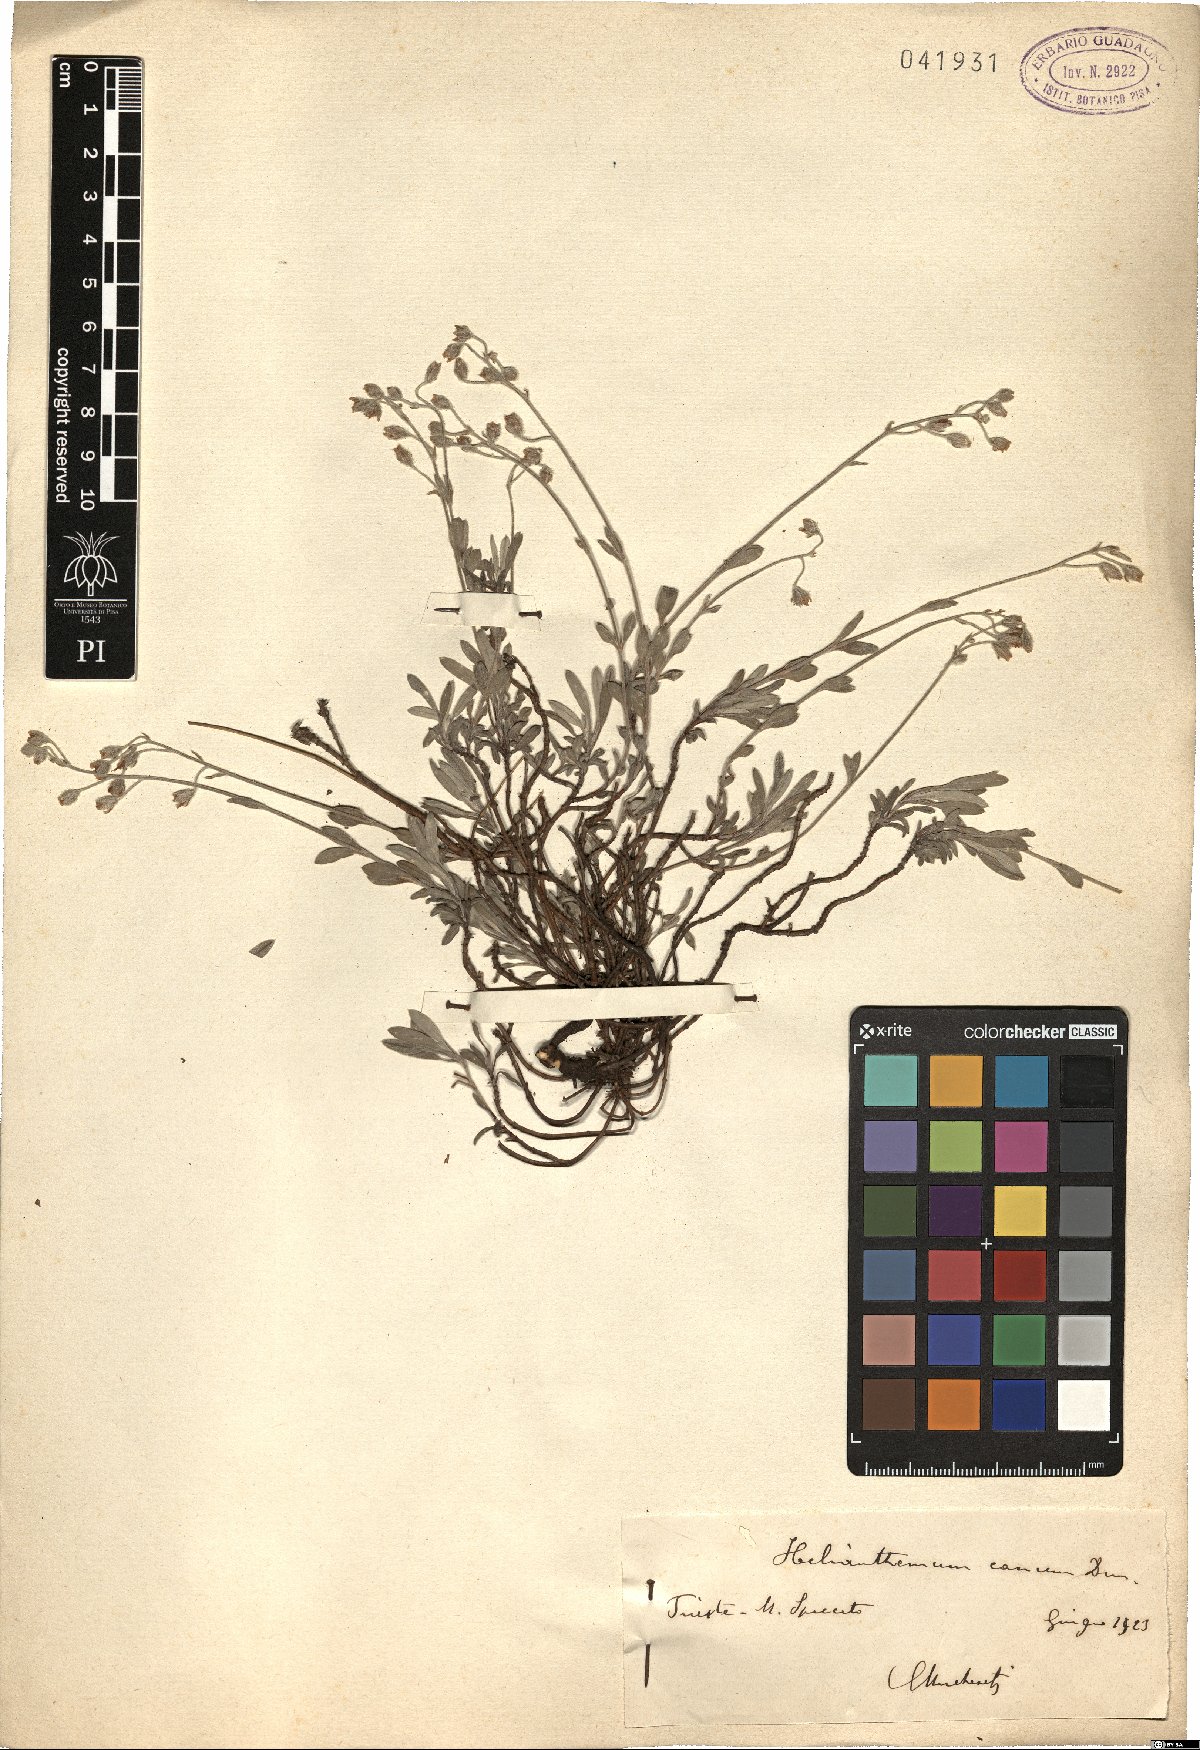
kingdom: Plantae
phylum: Tracheophyta
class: Magnoliopsida
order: Malvales
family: Cistaceae
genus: Helianthemum
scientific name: Helianthemum canum
